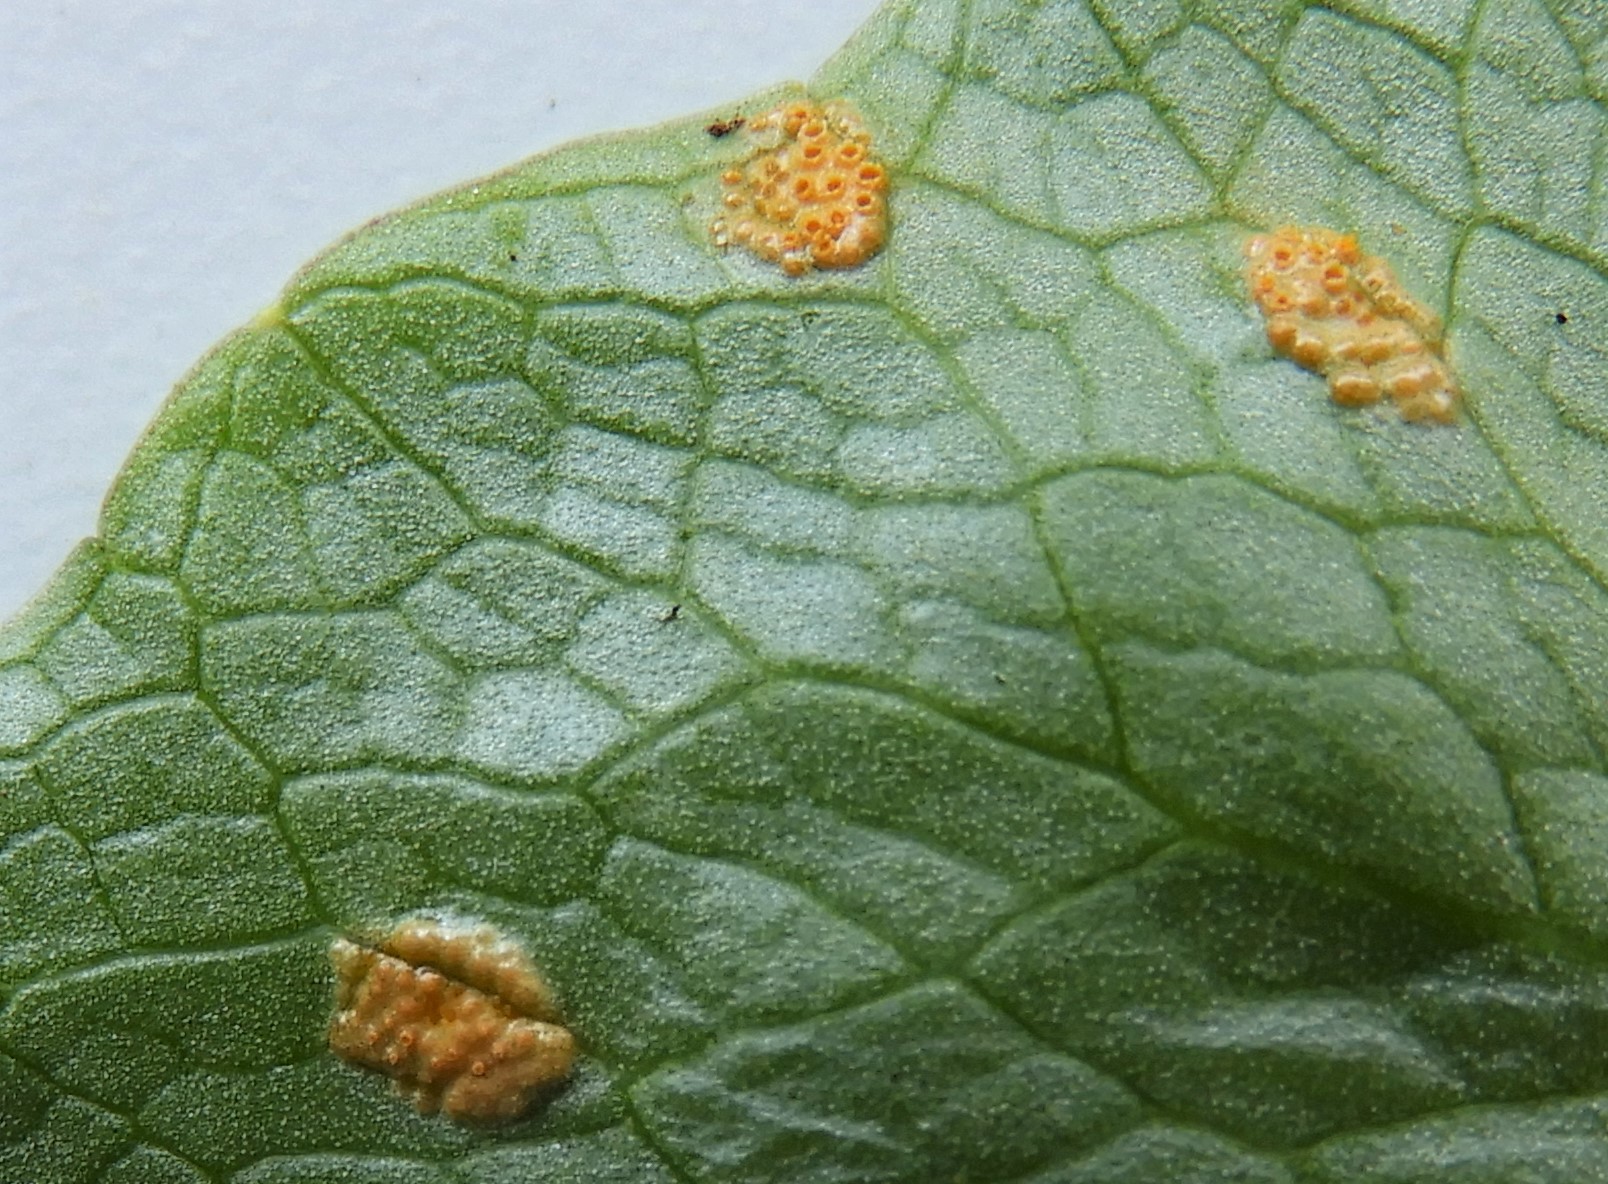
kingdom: Fungi
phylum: Basidiomycota
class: Pucciniomycetes
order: Pucciniales
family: Pucciniaceae
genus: Uromyces
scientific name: Uromyces dactylidis
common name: ranunkel-encellerust
